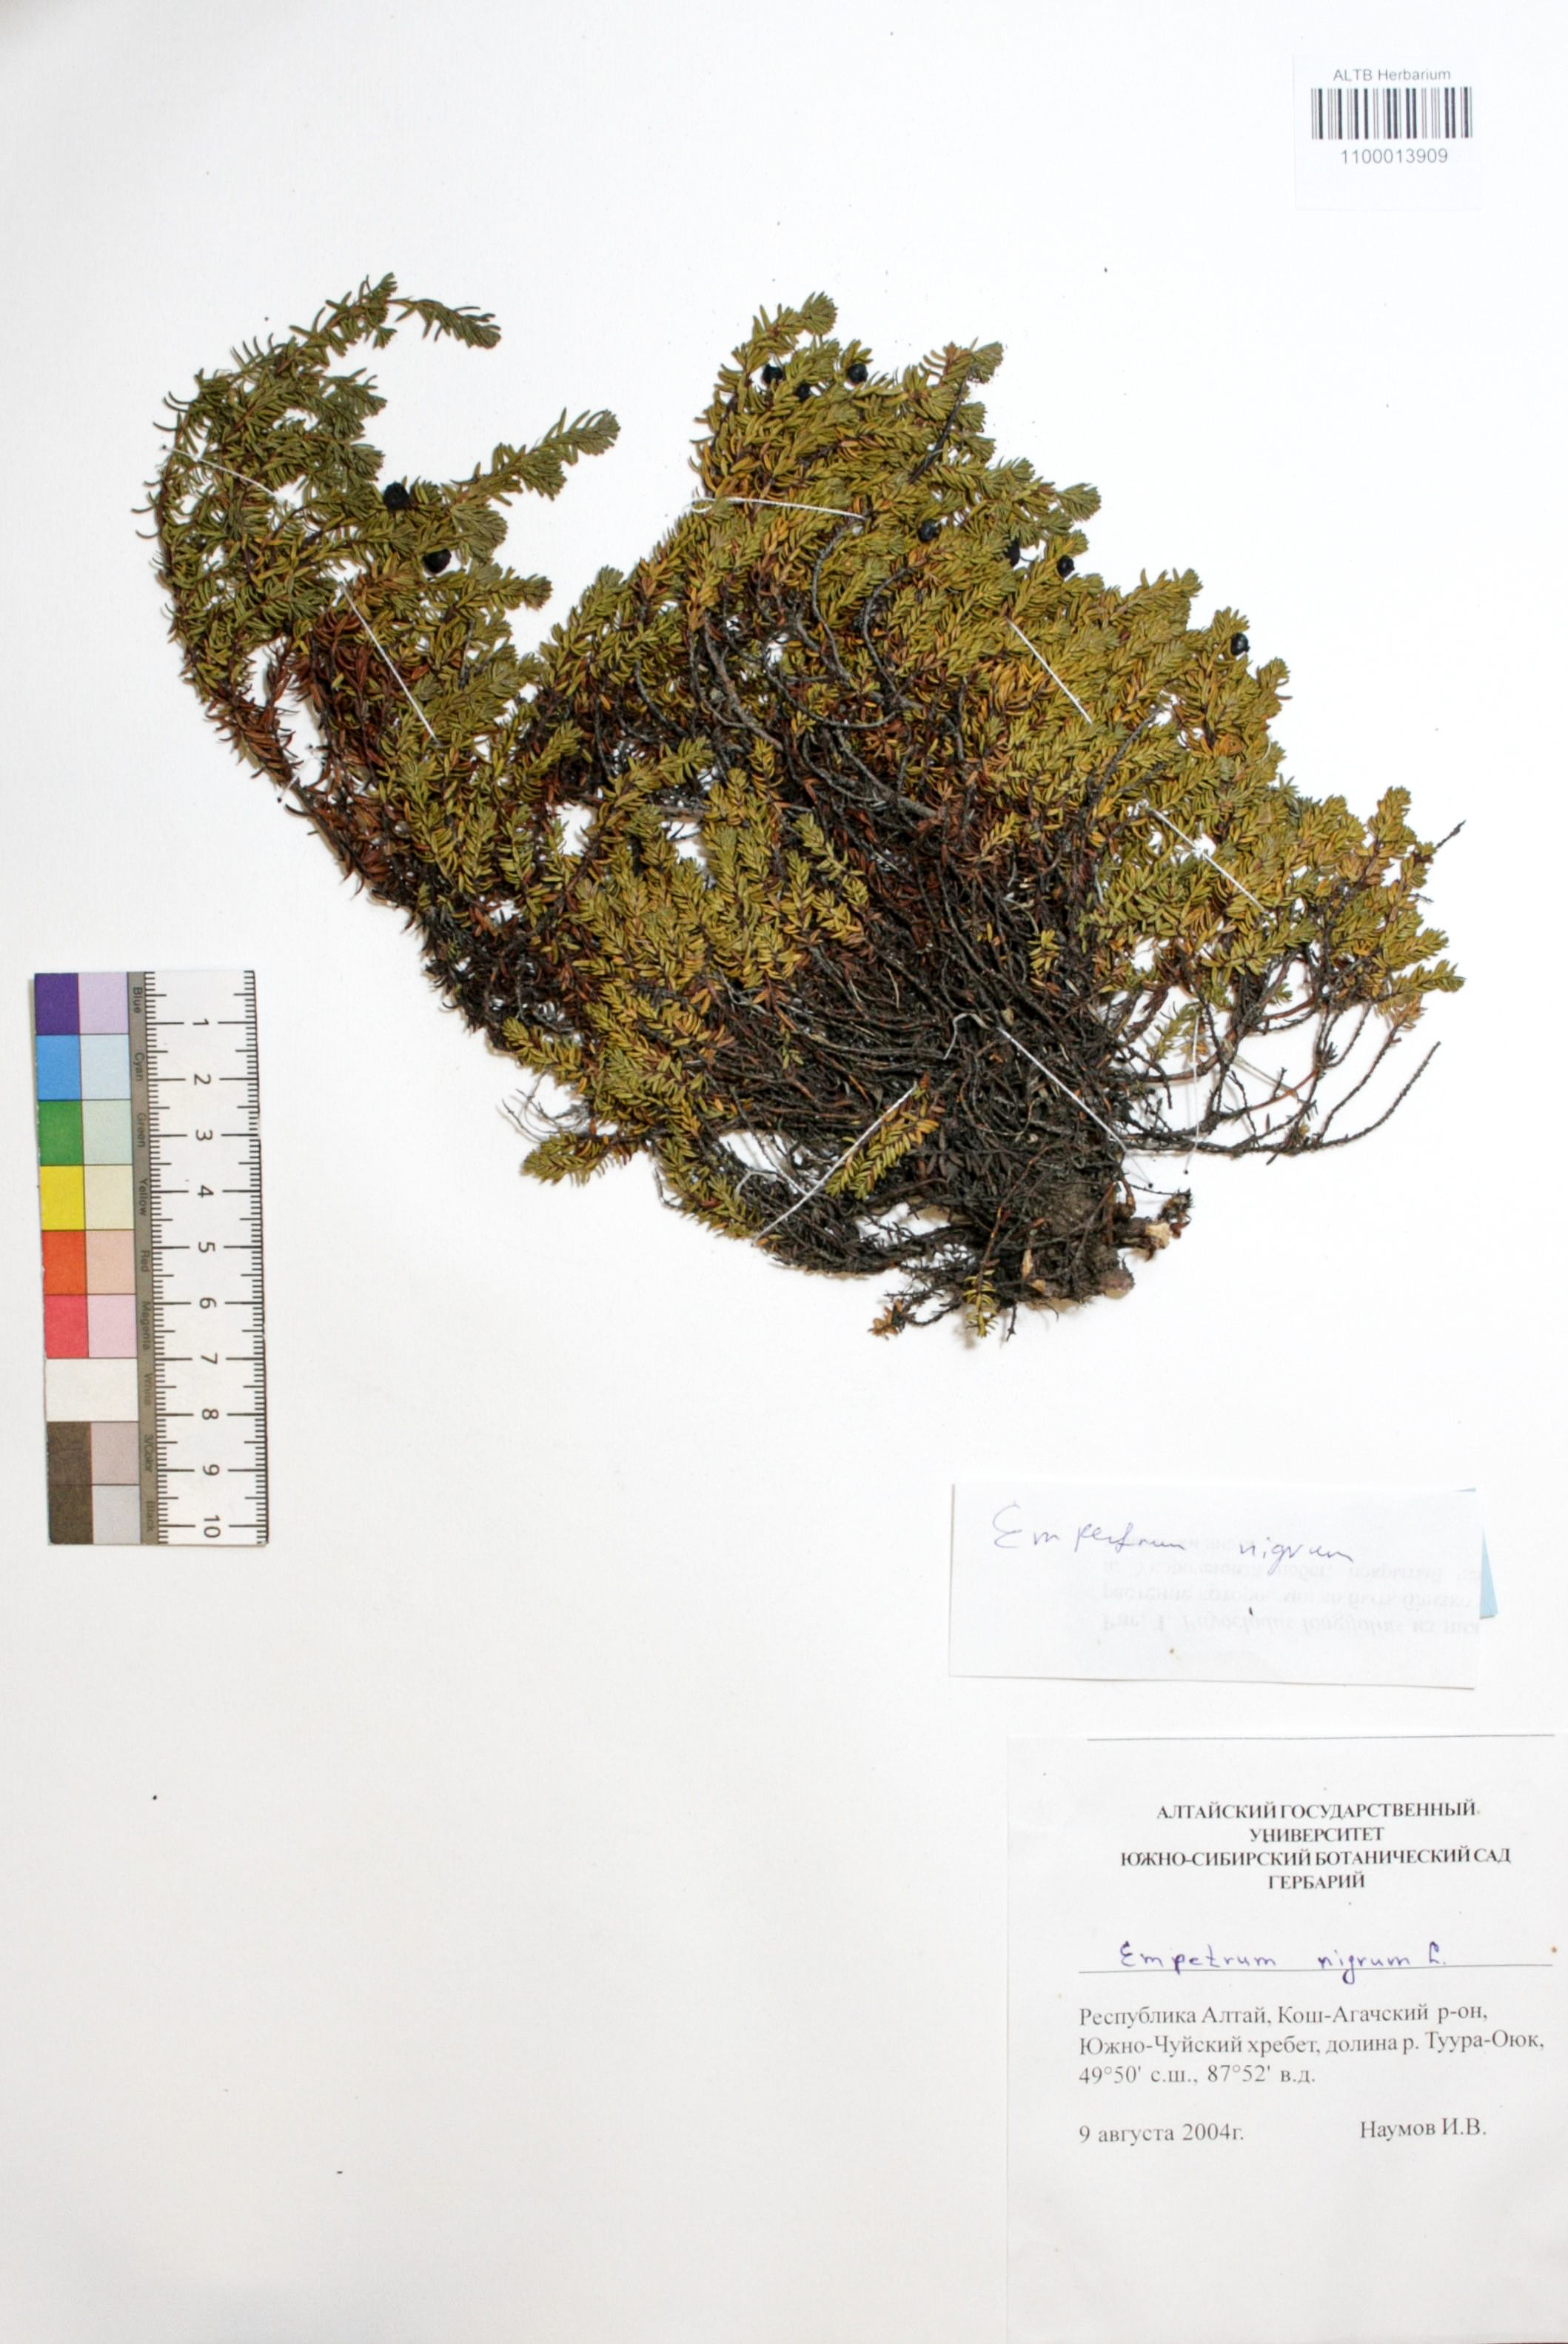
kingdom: Plantae
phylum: Tracheophyta
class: Magnoliopsida
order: Ericales
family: Ericaceae
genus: Empetrum
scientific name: Empetrum nigrum
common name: Black crowberry
